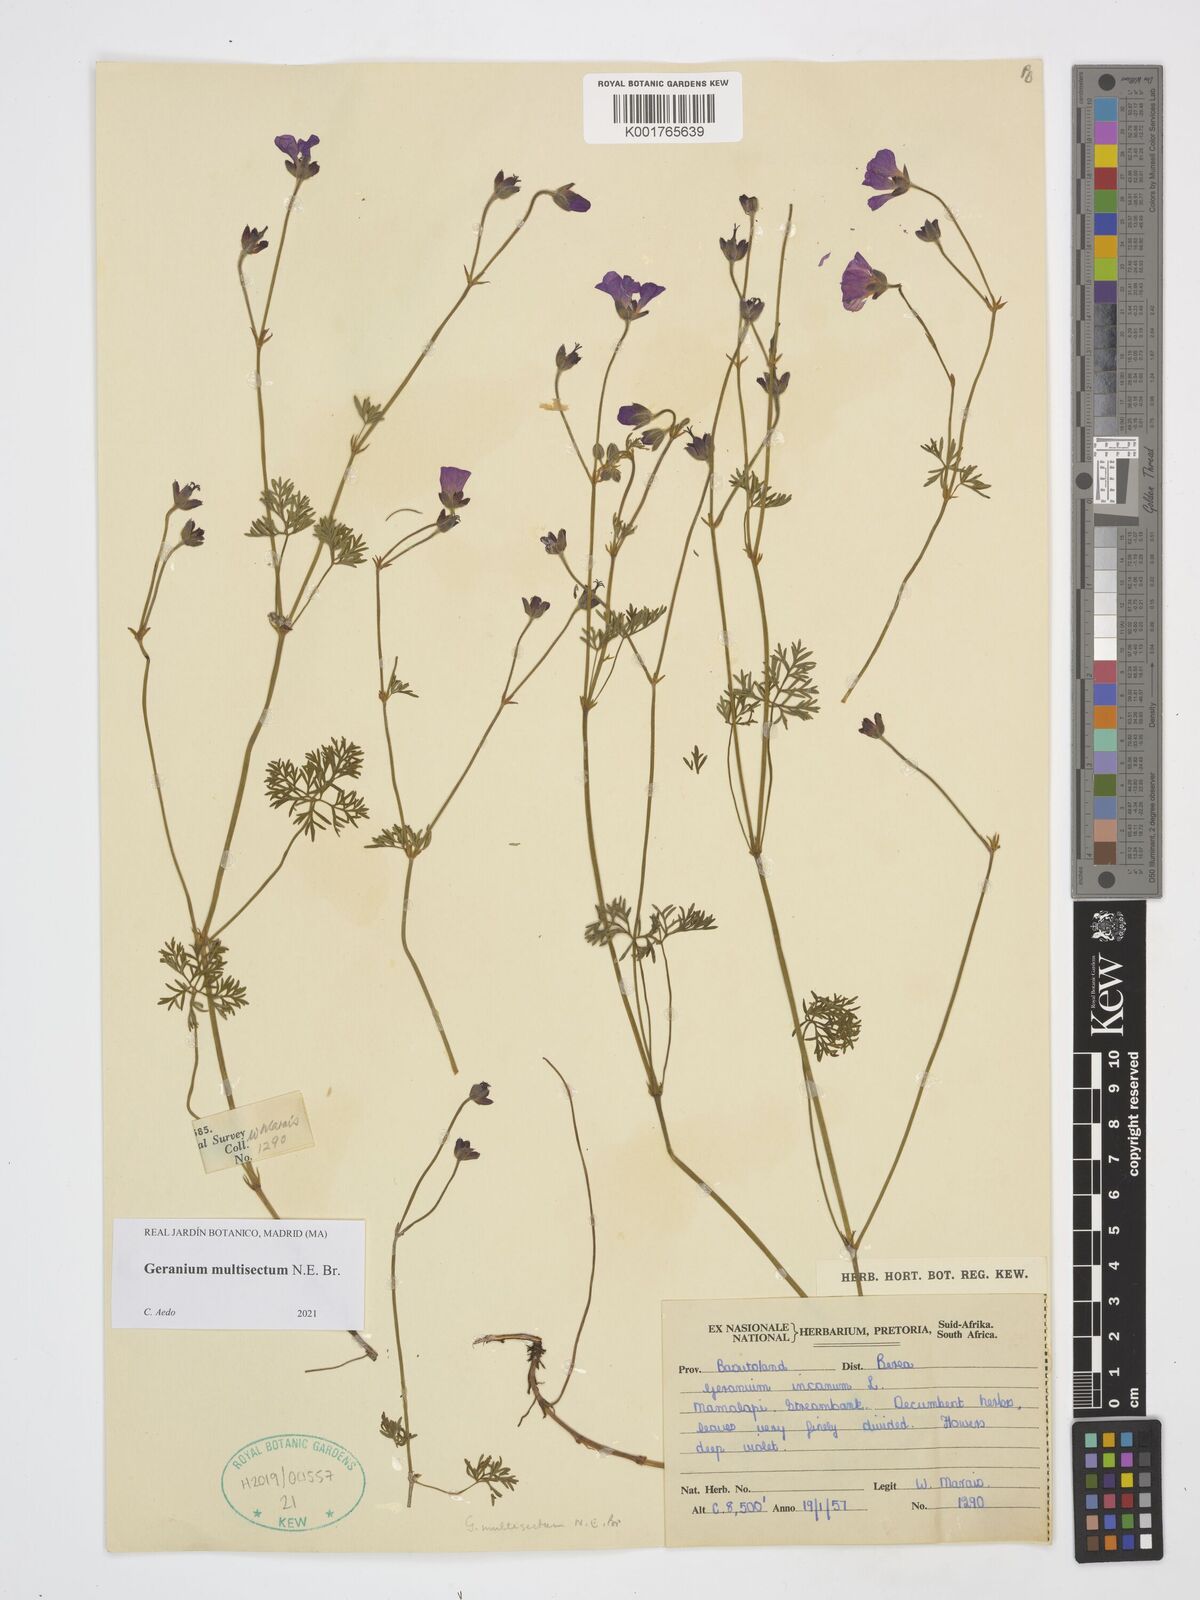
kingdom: Plantae
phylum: Tracheophyta
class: Magnoliopsida
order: Geraniales
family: Geraniaceae
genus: Geranium
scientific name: Geranium multisectum
